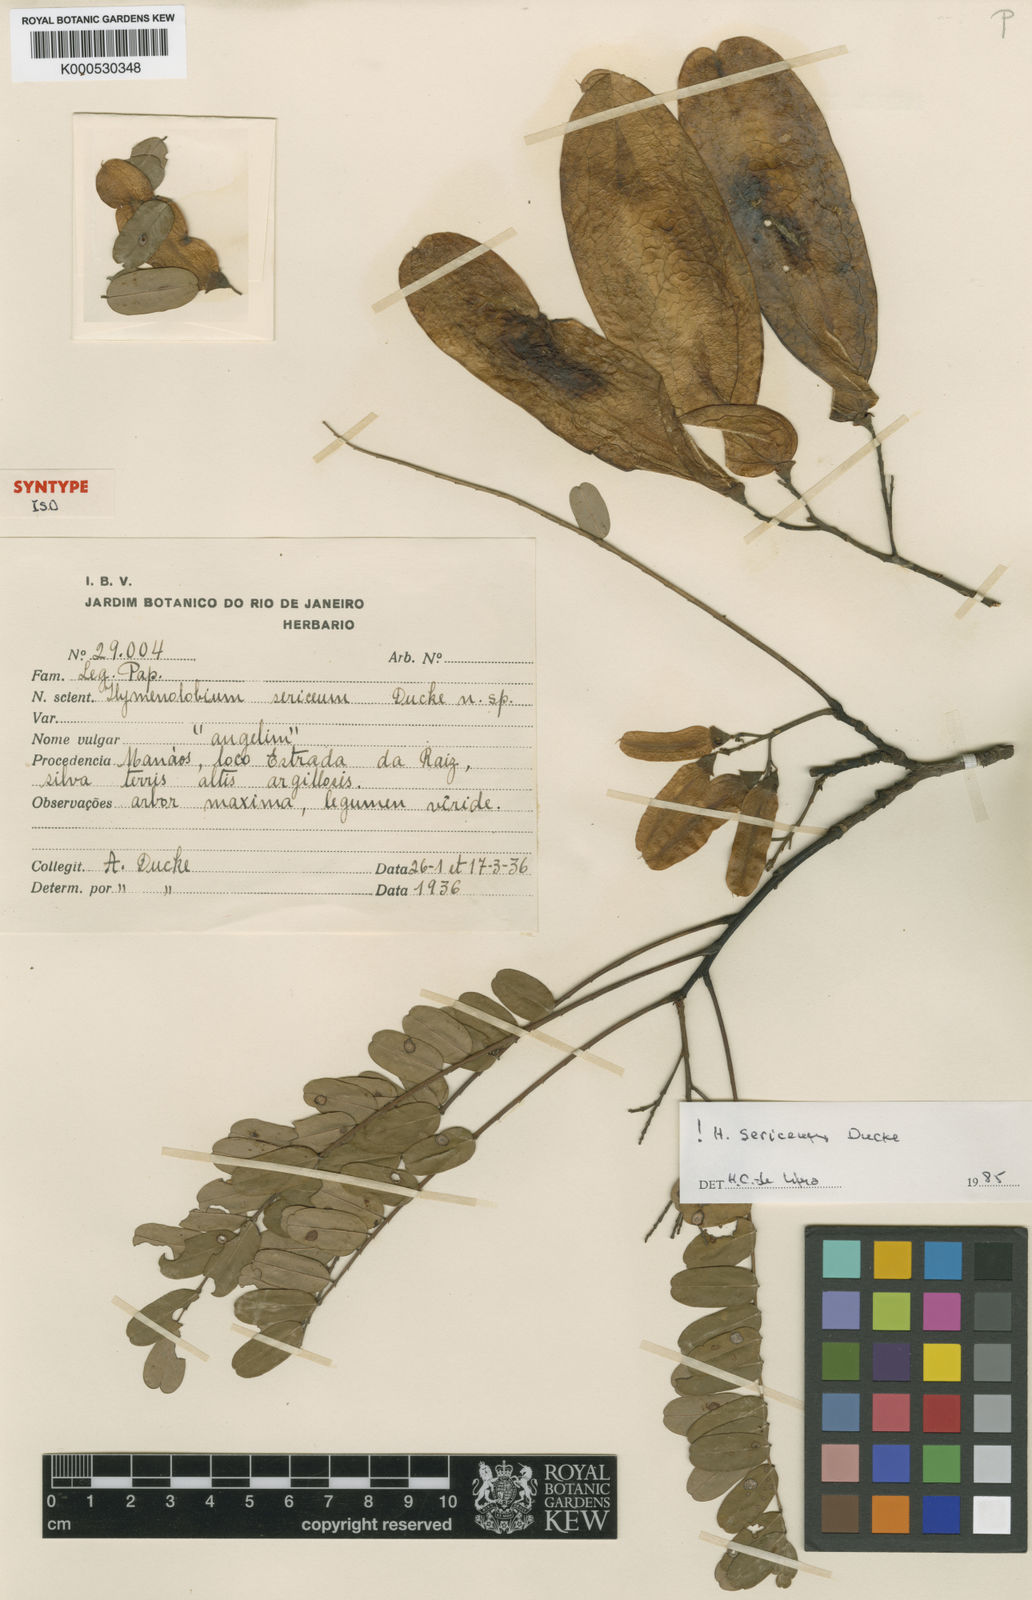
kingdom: Plantae
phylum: Tracheophyta
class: Magnoliopsida
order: Fabales
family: Fabaceae
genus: Hymenolobium
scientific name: Hymenolobium sericeum
